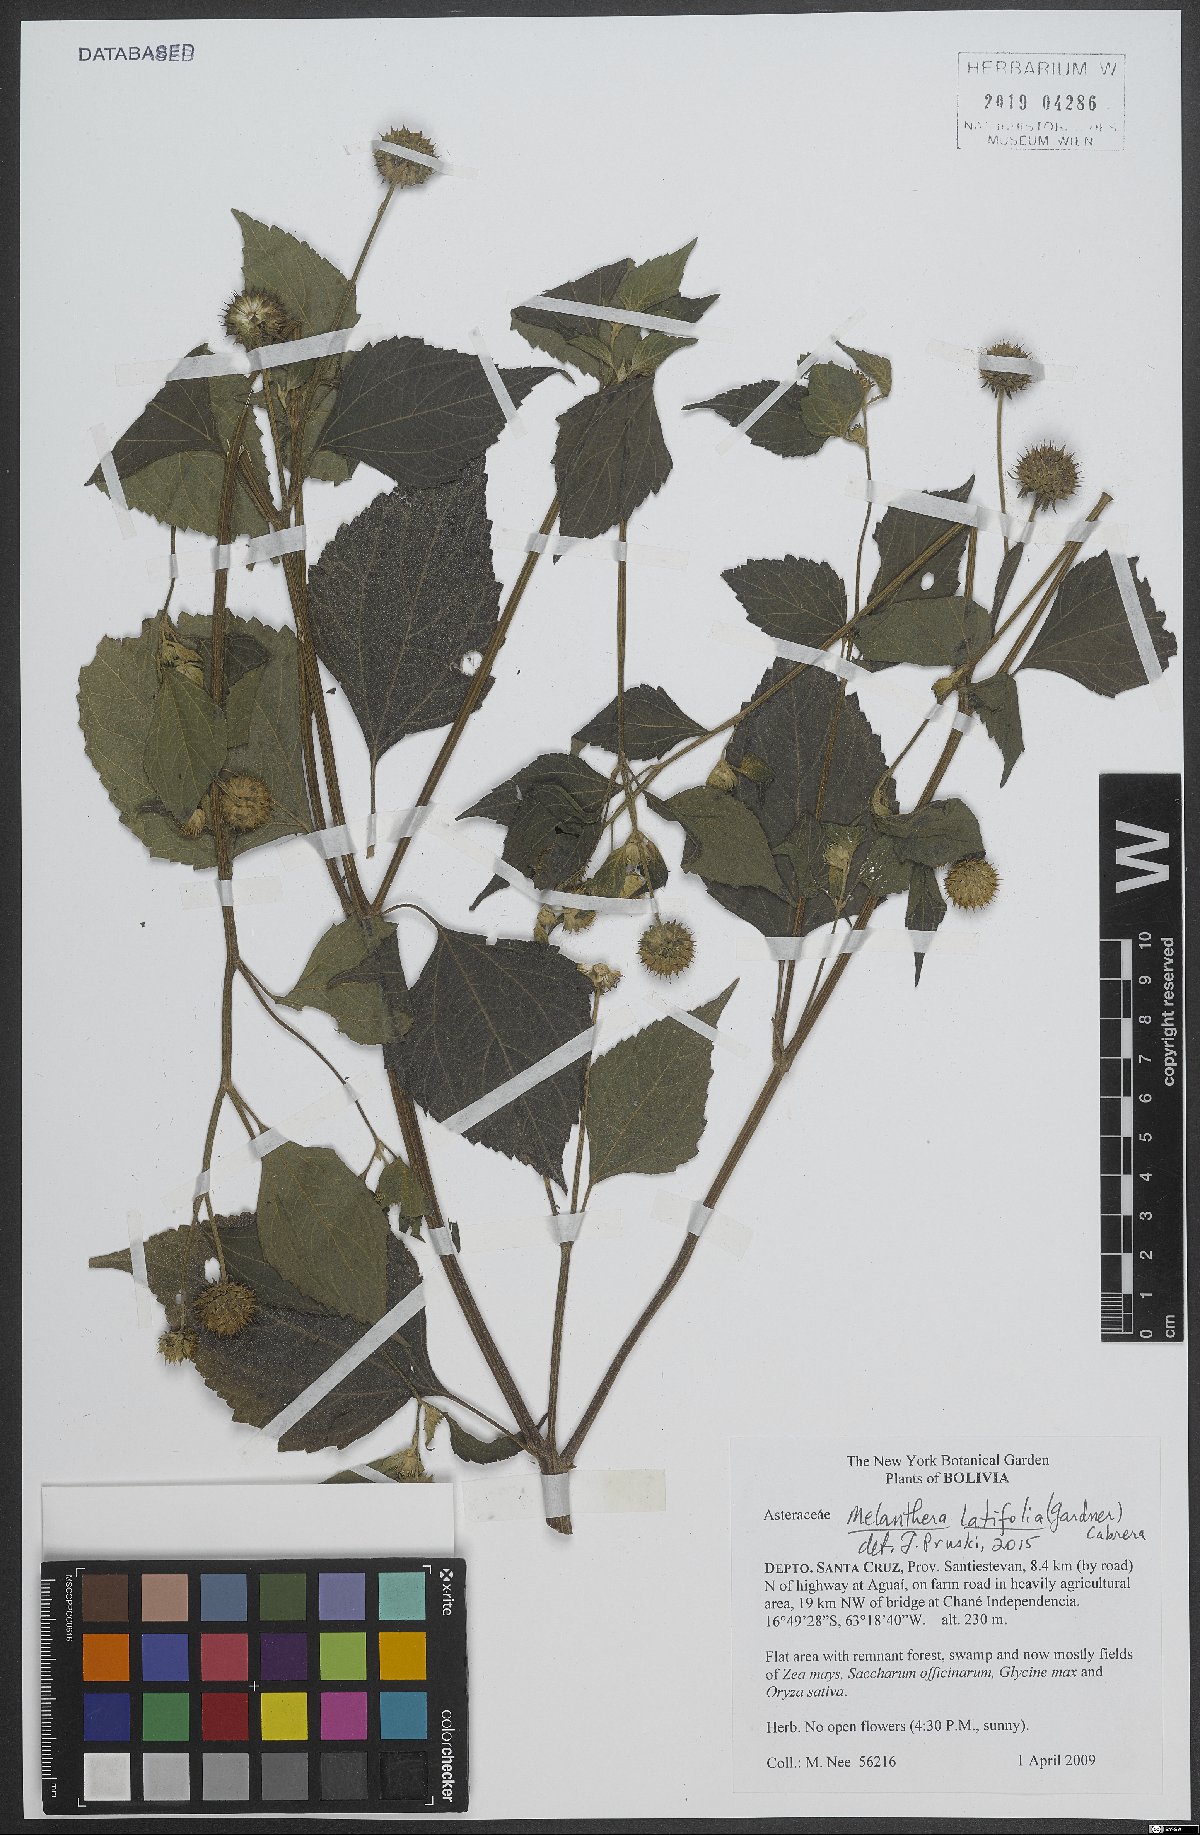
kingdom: Plantae
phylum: Tracheophyta
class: Magnoliopsida
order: Asterales
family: Asteraceae
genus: Echinocephalum
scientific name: Echinocephalum latifolium
